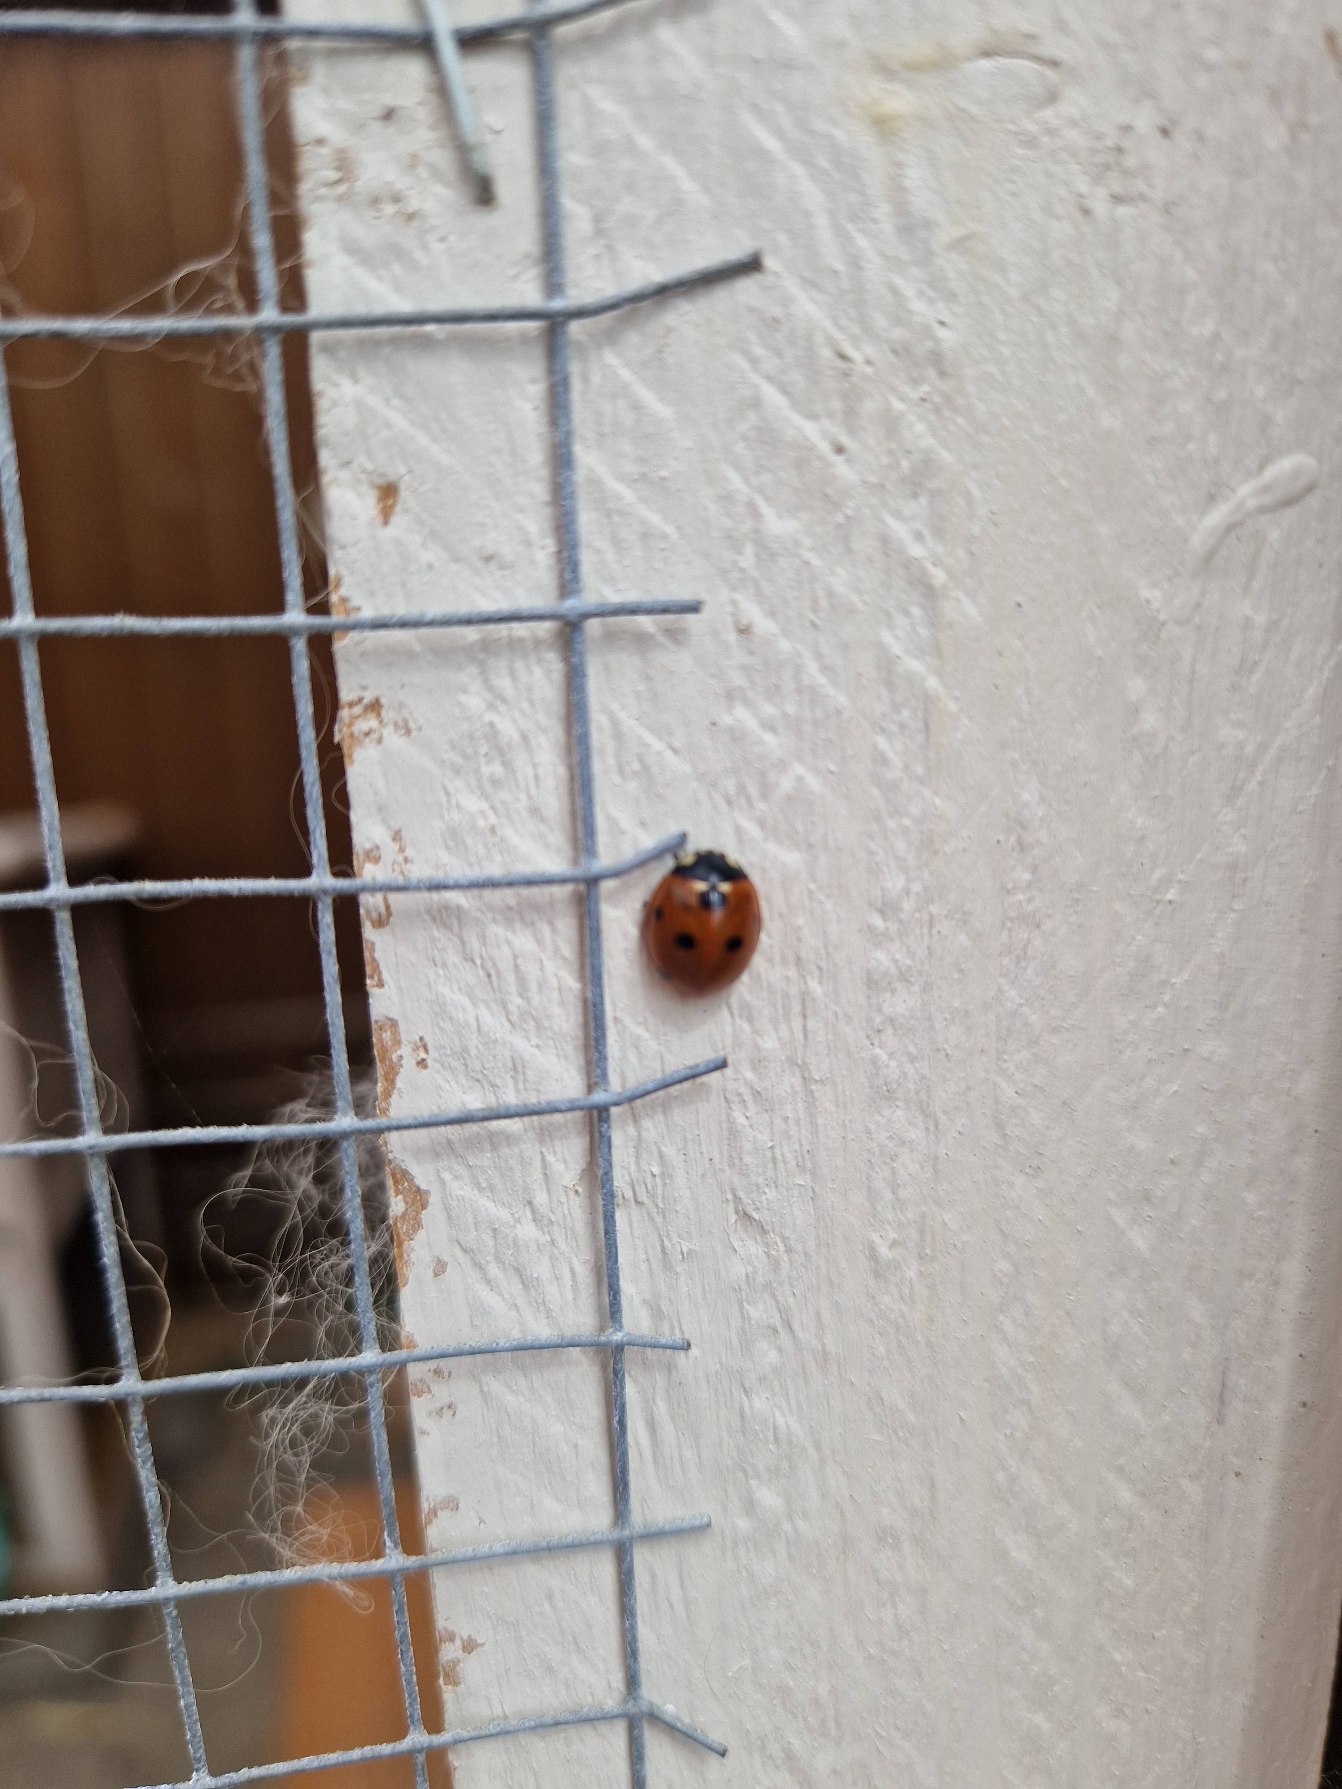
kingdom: Animalia
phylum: Arthropoda
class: Insecta
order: Coleoptera
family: Coccinellidae
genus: Coccinella
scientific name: Coccinella septempunctata
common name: Syvplettet mariehøne
